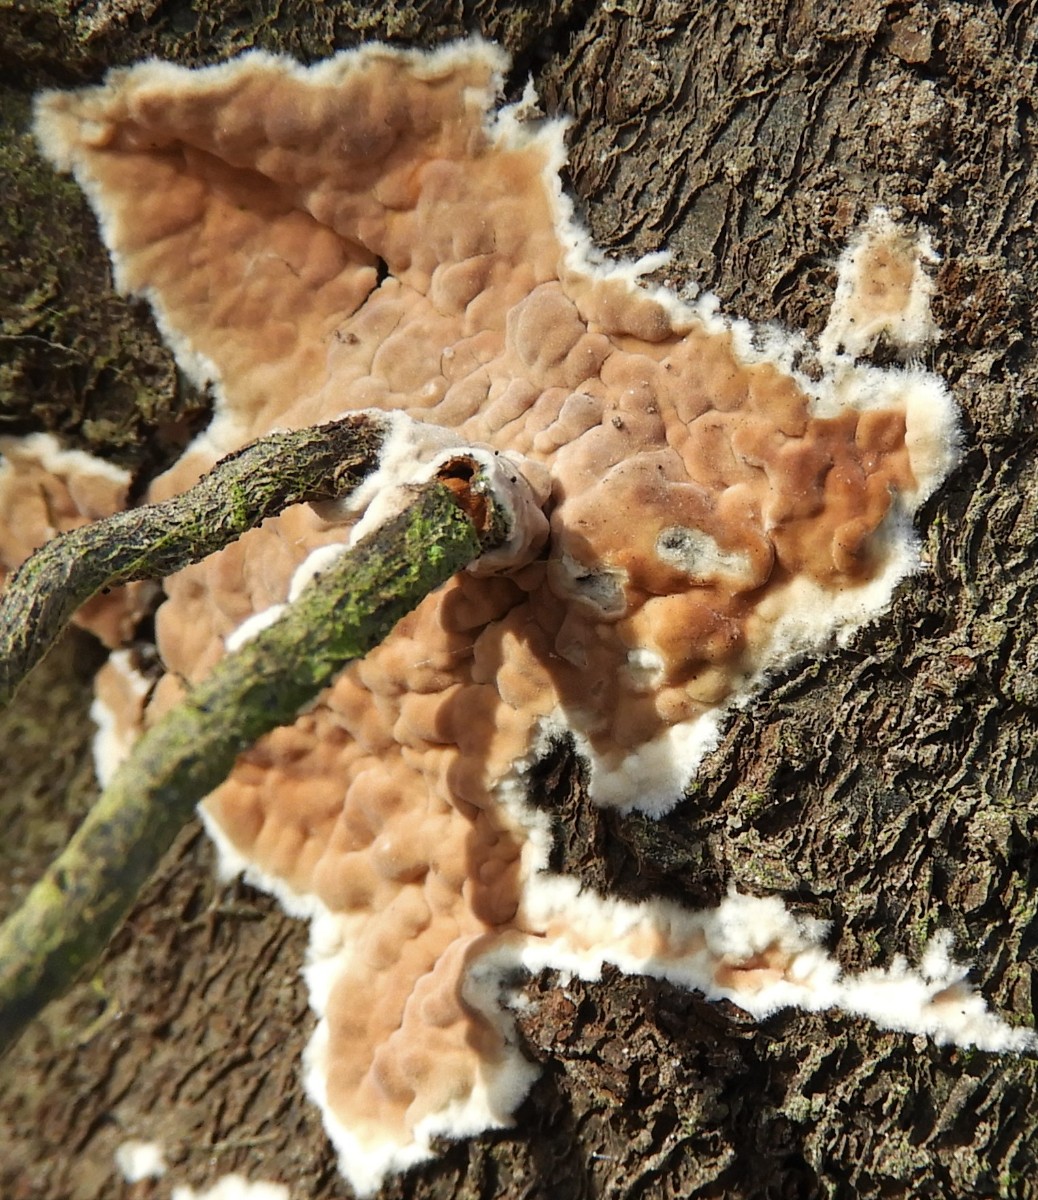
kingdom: Fungi
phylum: Basidiomycota
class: Agaricomycetes
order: Agaricales
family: Physalacriaceae
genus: Cylindrobasidium
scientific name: Cylindrobasidium evolvens
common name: sprækkehinde
